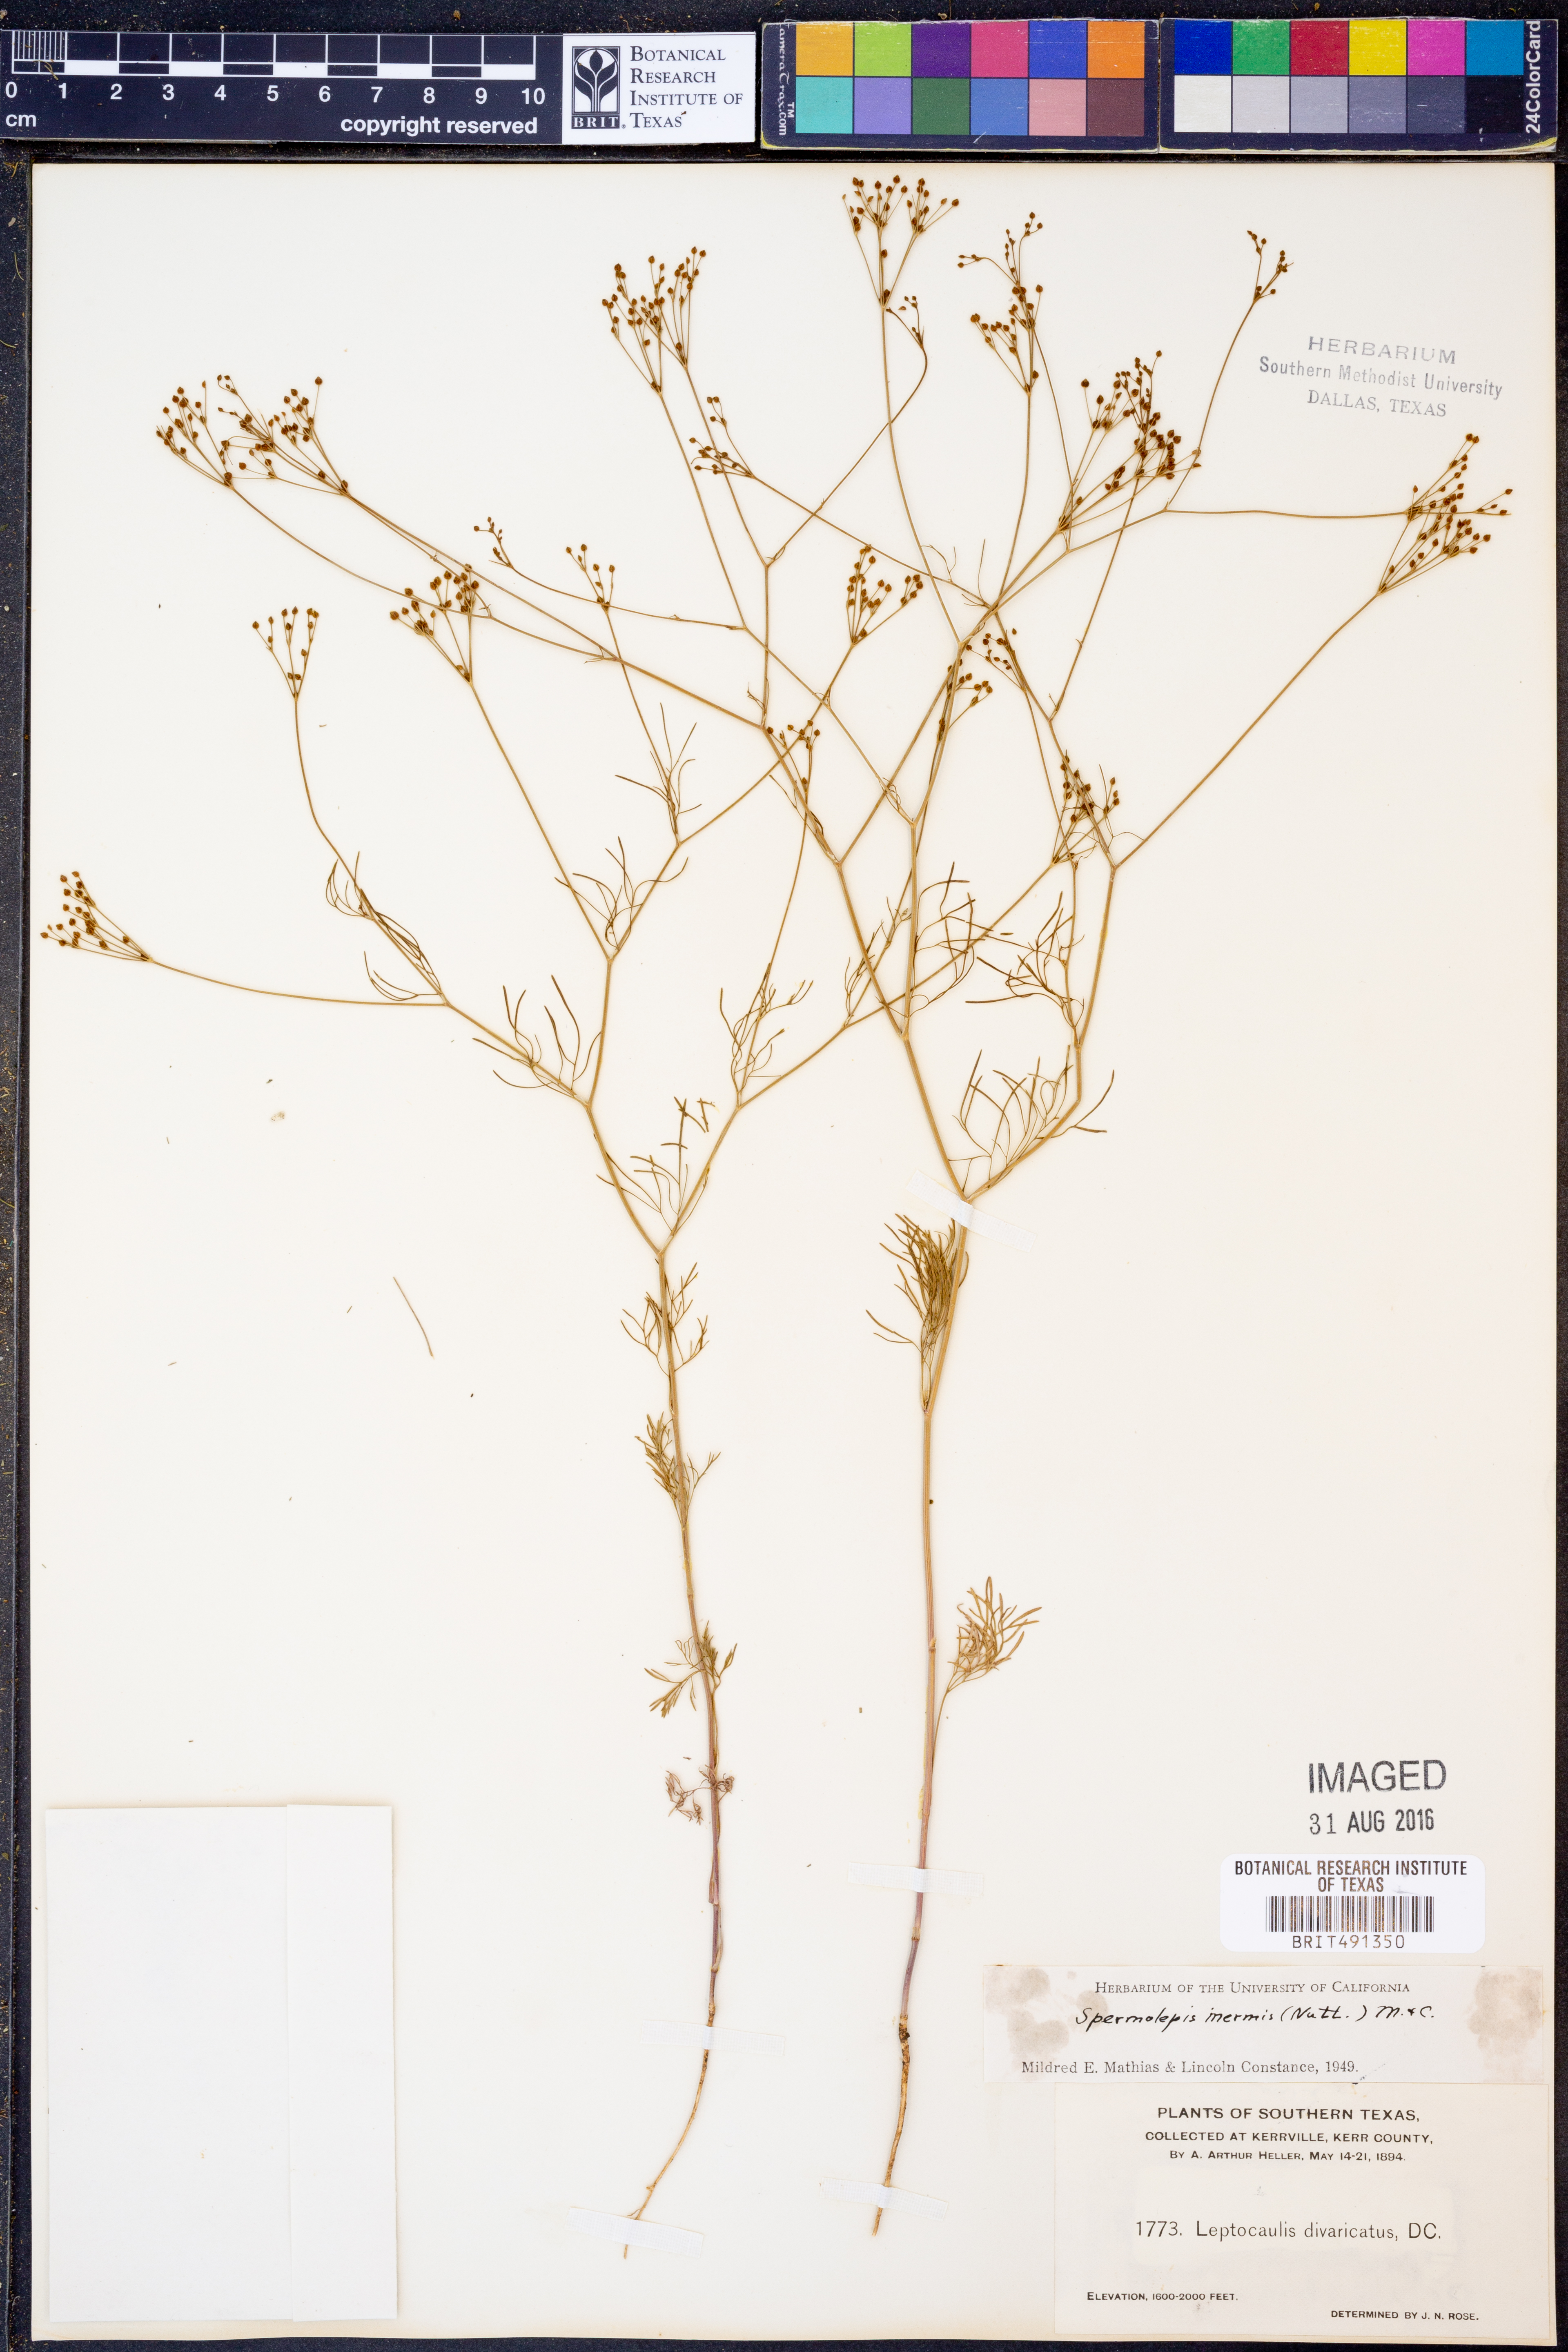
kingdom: Plantae
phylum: Tracheophyta
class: Magnoliopsida
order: Apiales
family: Apiaceae
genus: Spermolepis
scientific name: Spermolepis inermis
